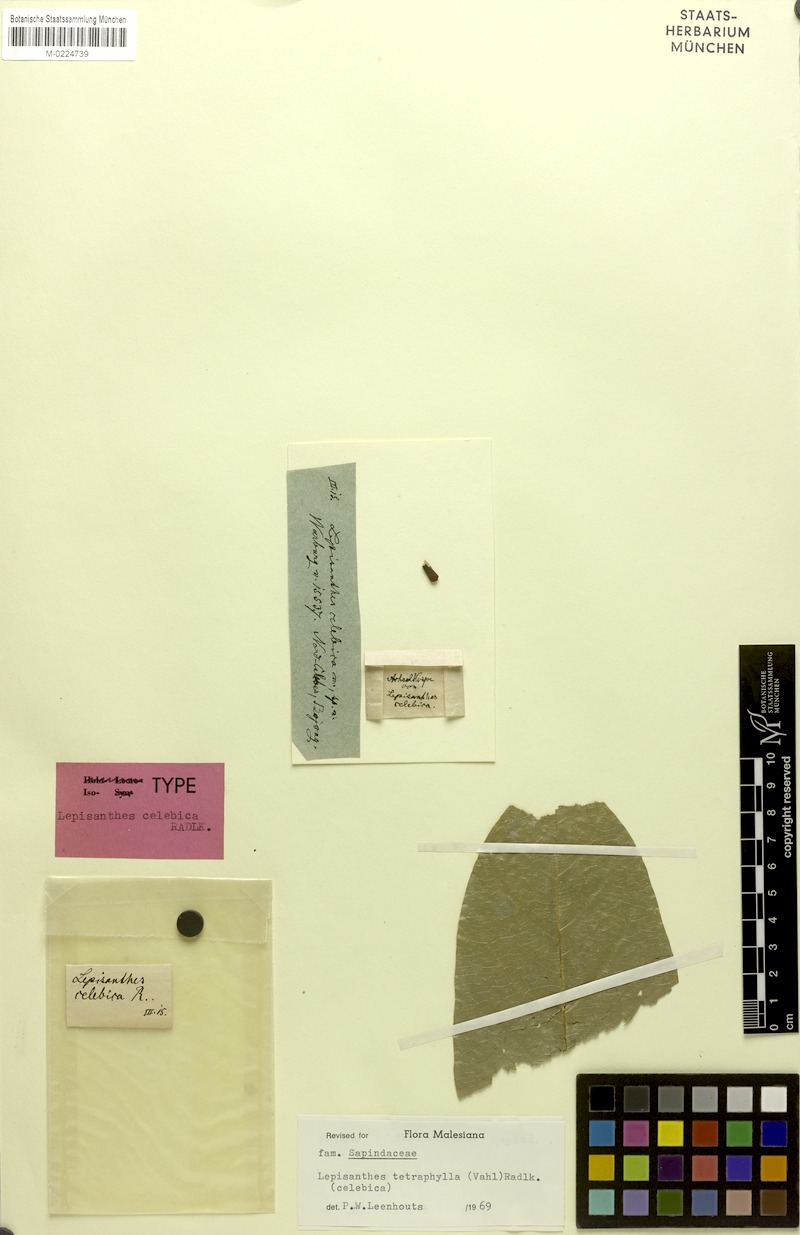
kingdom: Plantae
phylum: Tracheophyta
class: Magnoliopsida
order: Sapindales
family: Sapindaceae
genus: Lepisanthes
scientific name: Lepisanthes celebica
